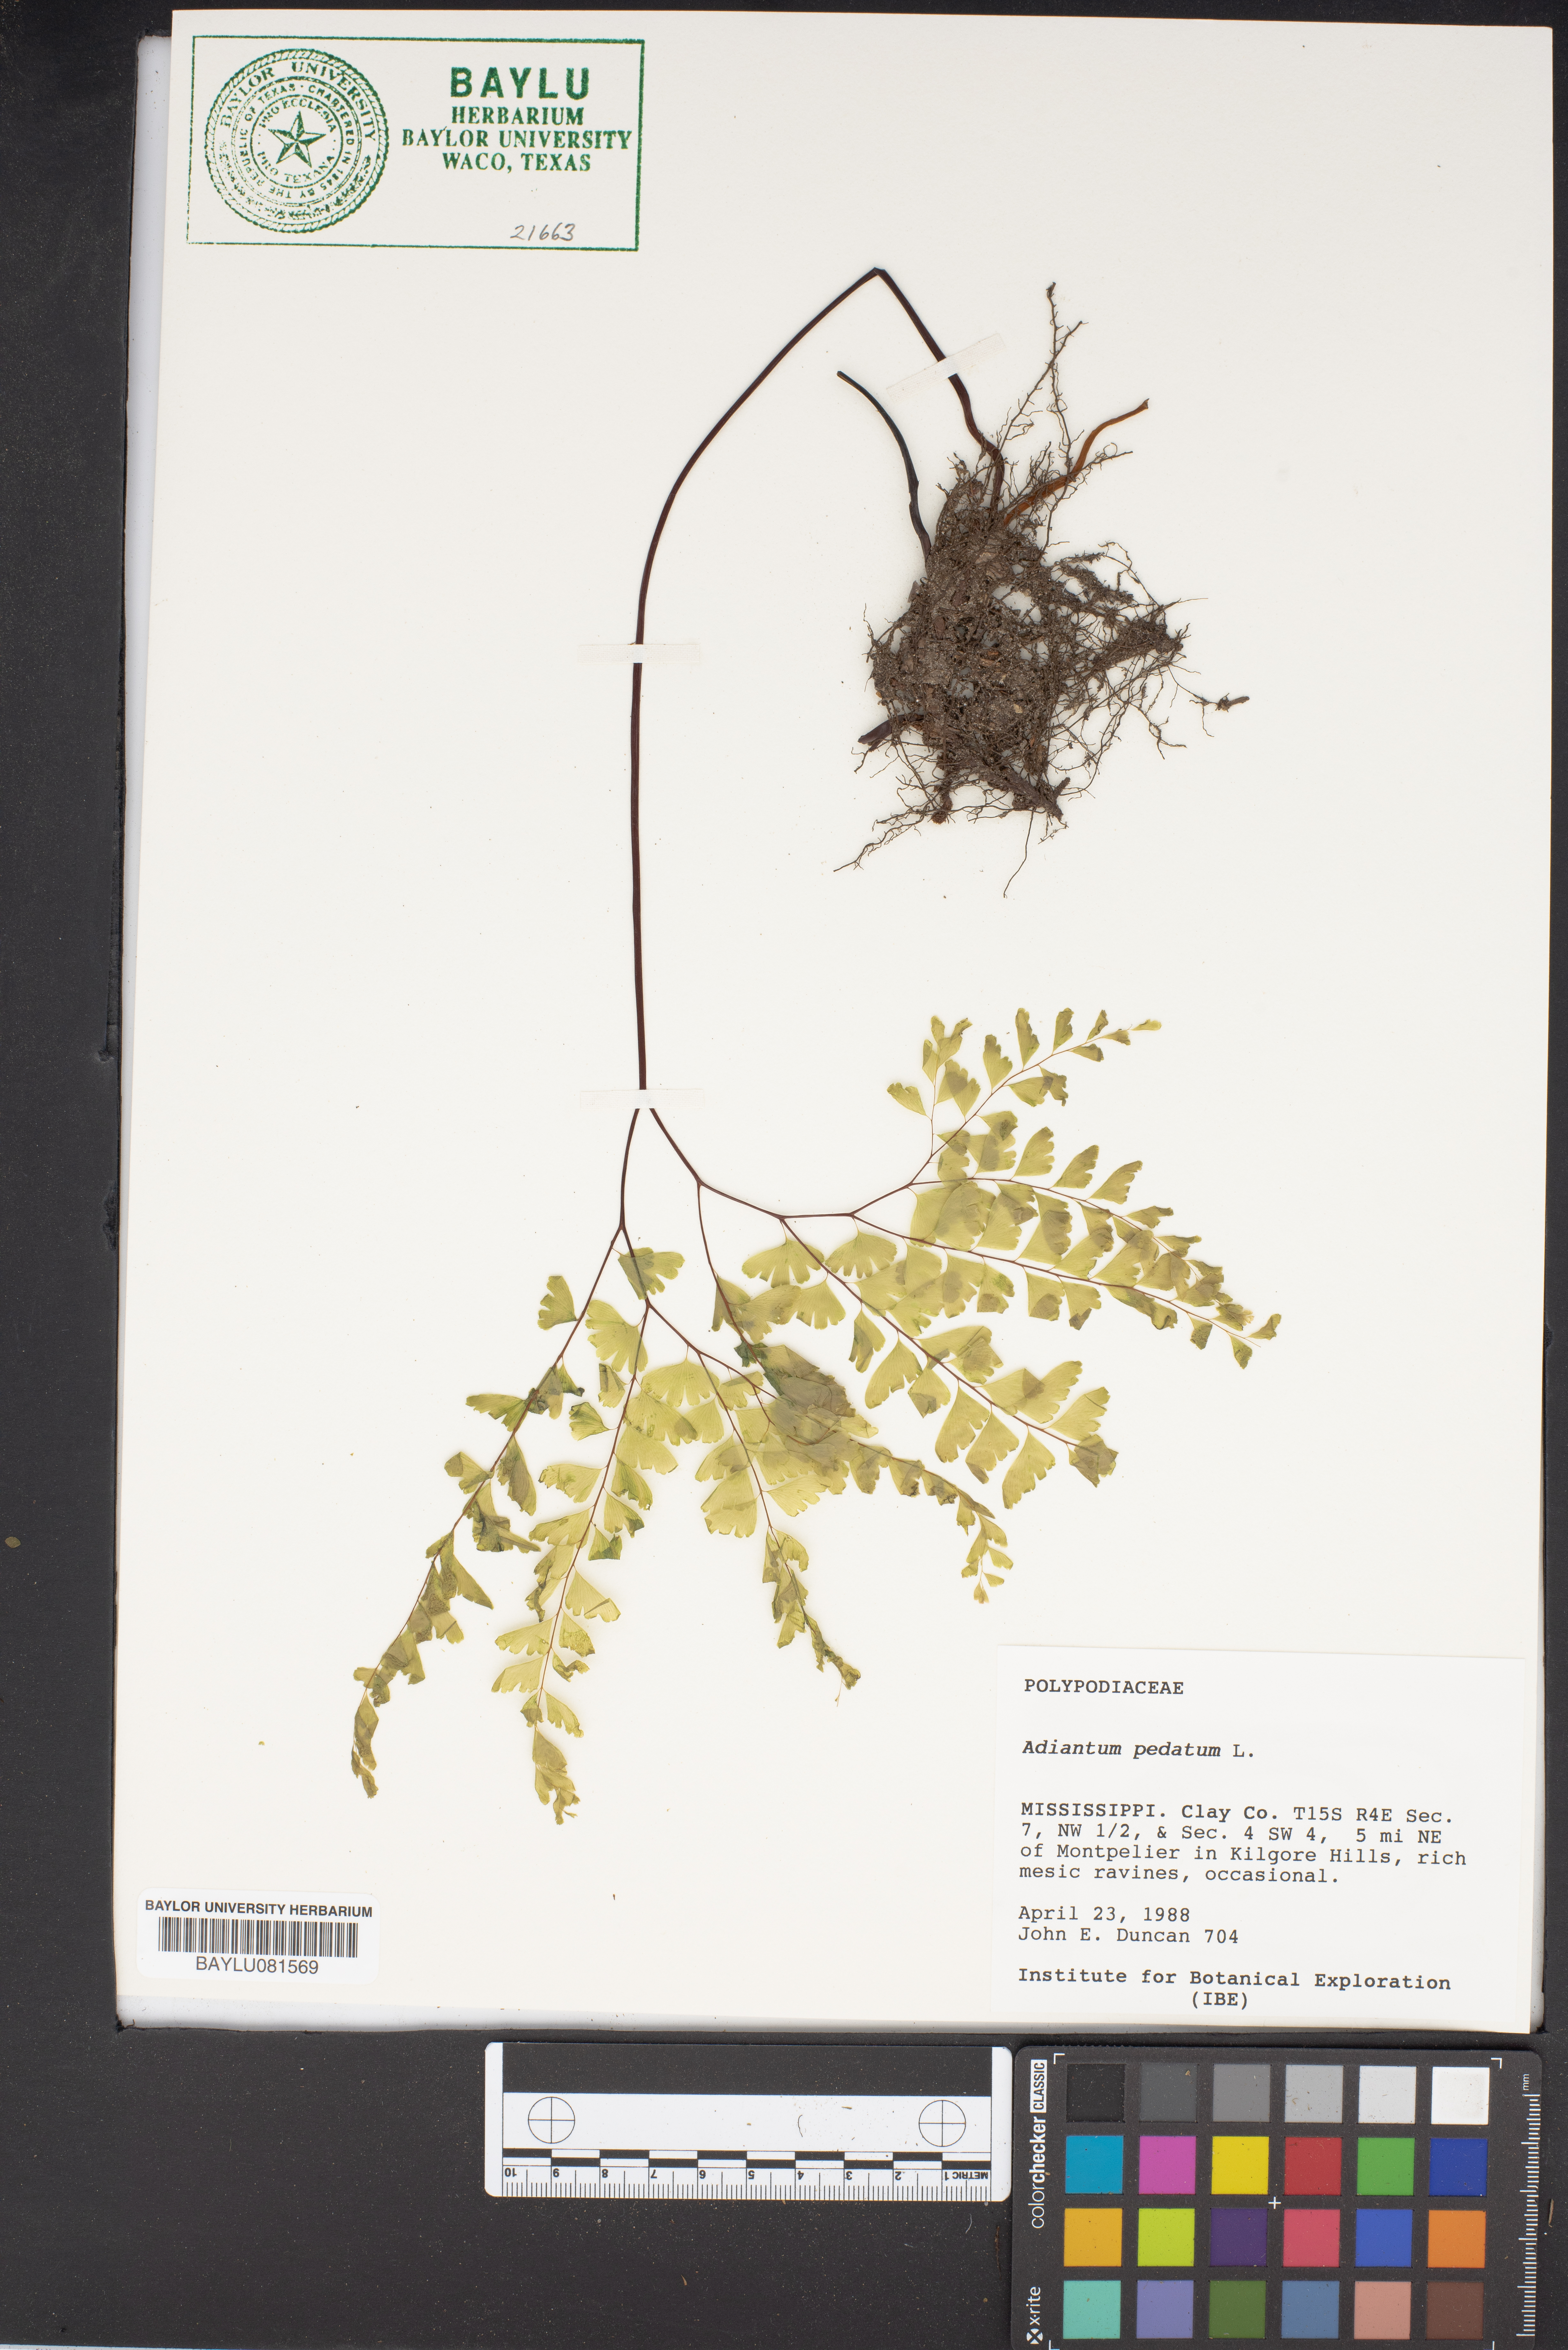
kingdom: Plantae
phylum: Tracheophyta
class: Polypodiopsida
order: Polypodiales
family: Pteridaceae
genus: Adiantum
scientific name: Adiantum pedatum
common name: Five-finger fern
